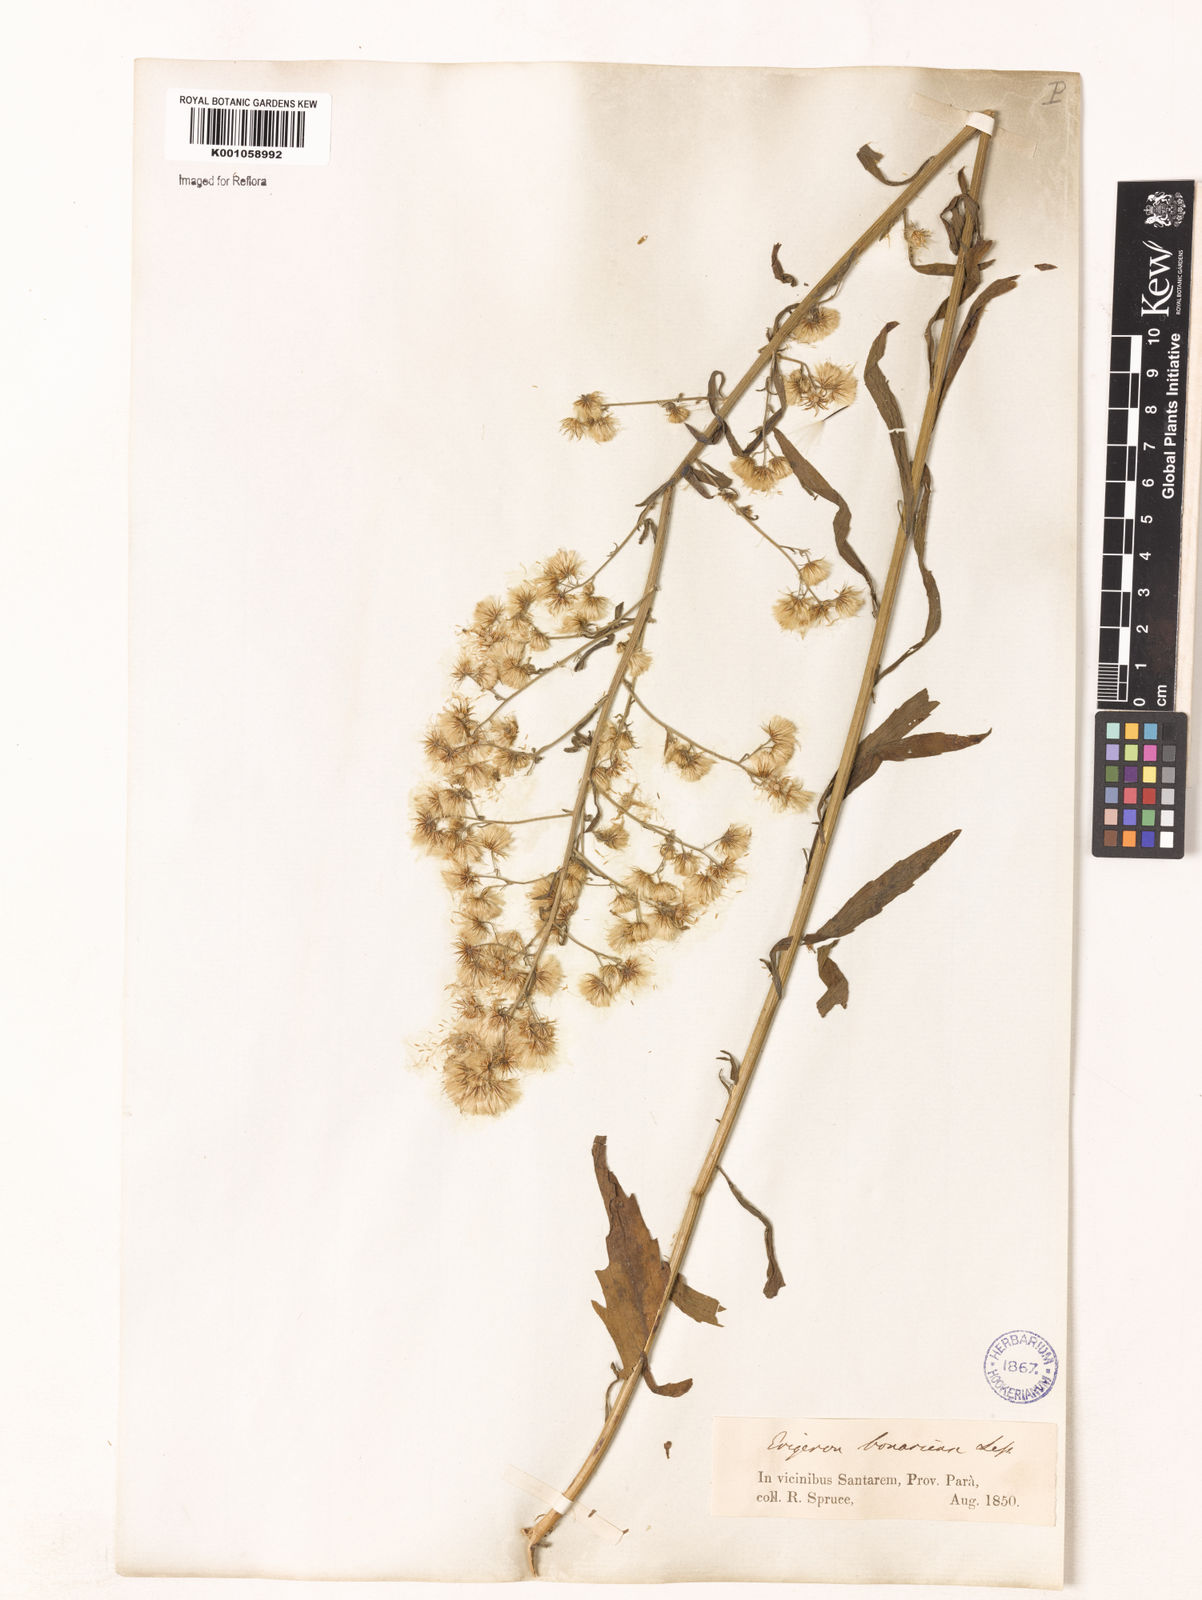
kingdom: Plantae
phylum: Tracheophyta
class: Magnoliopsida
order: Asterales
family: Asteraceae
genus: Erigeron
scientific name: Erigeron
